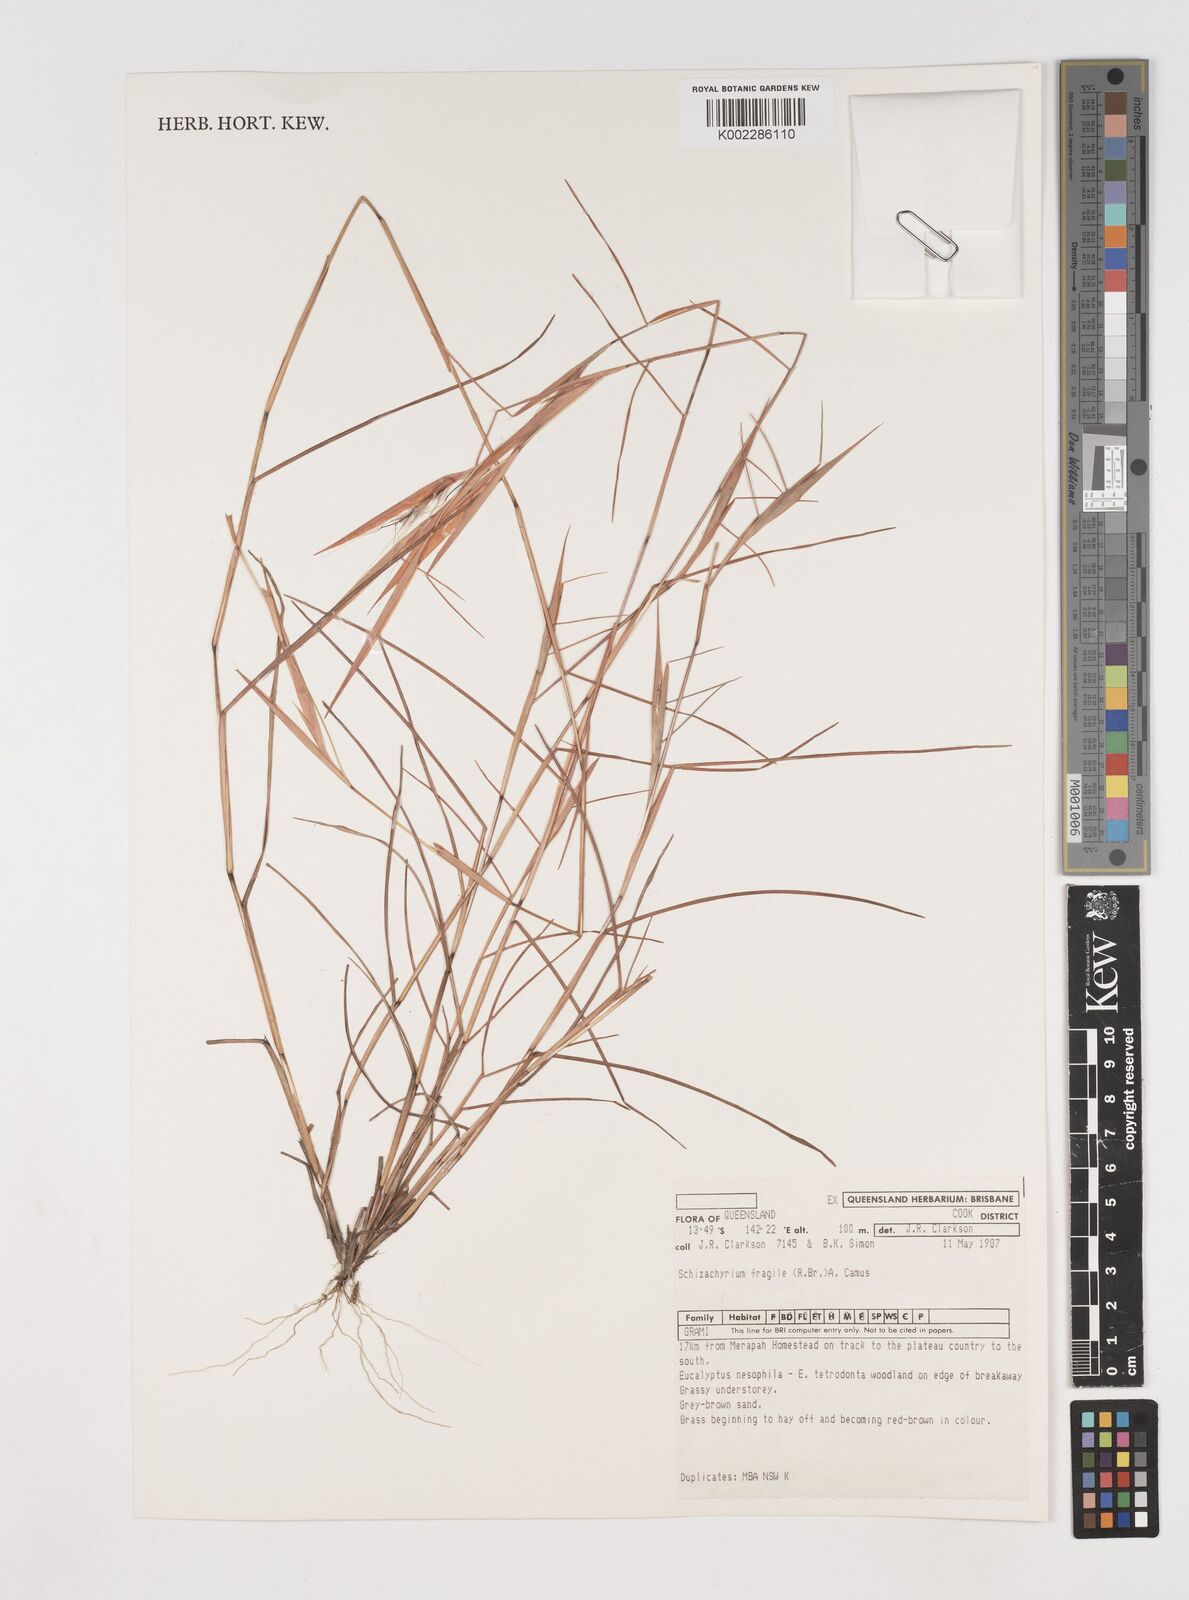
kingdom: Plantae
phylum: Tracheophyta
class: Liliopsida
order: Poales
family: Poaceae
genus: Schizachyrium
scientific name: Schizachyrium fragile
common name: Red spathe grass
